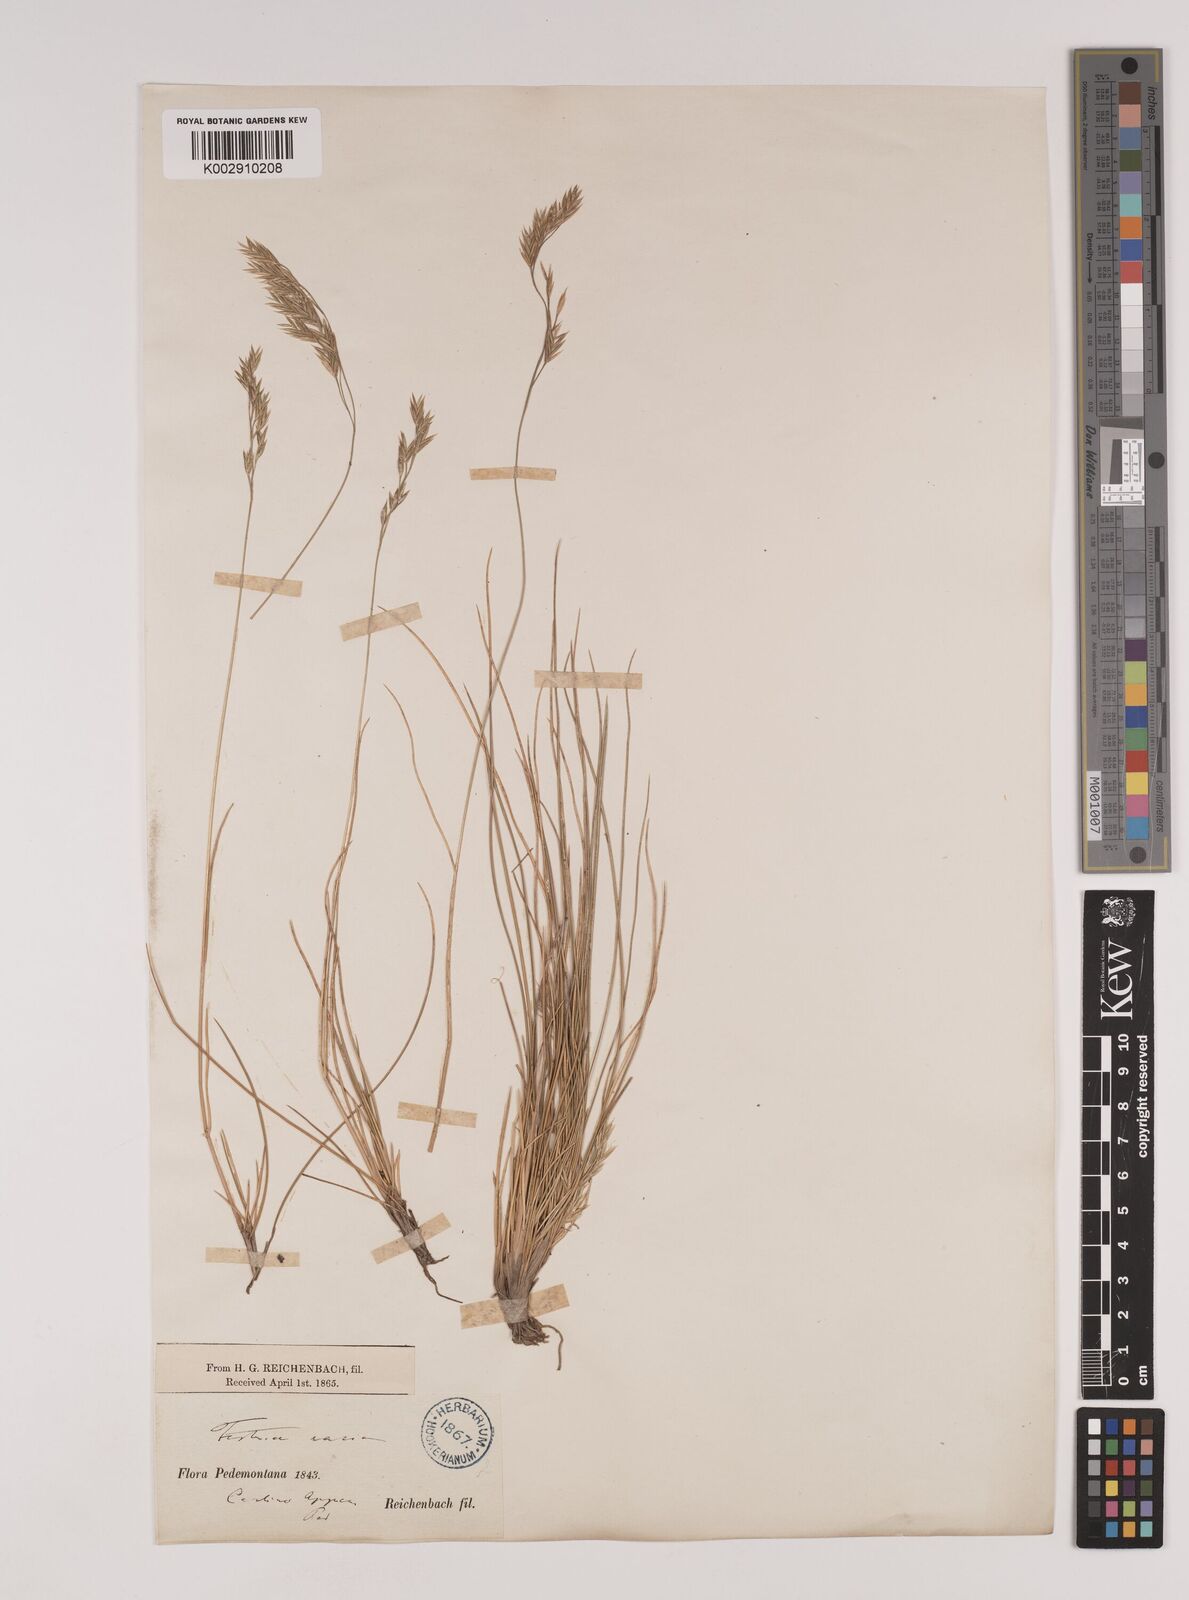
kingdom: Plantae
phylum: Tracheophyta
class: Liliopsida
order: Poales
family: Poaceae
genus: Festuca
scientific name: Festuca varia
